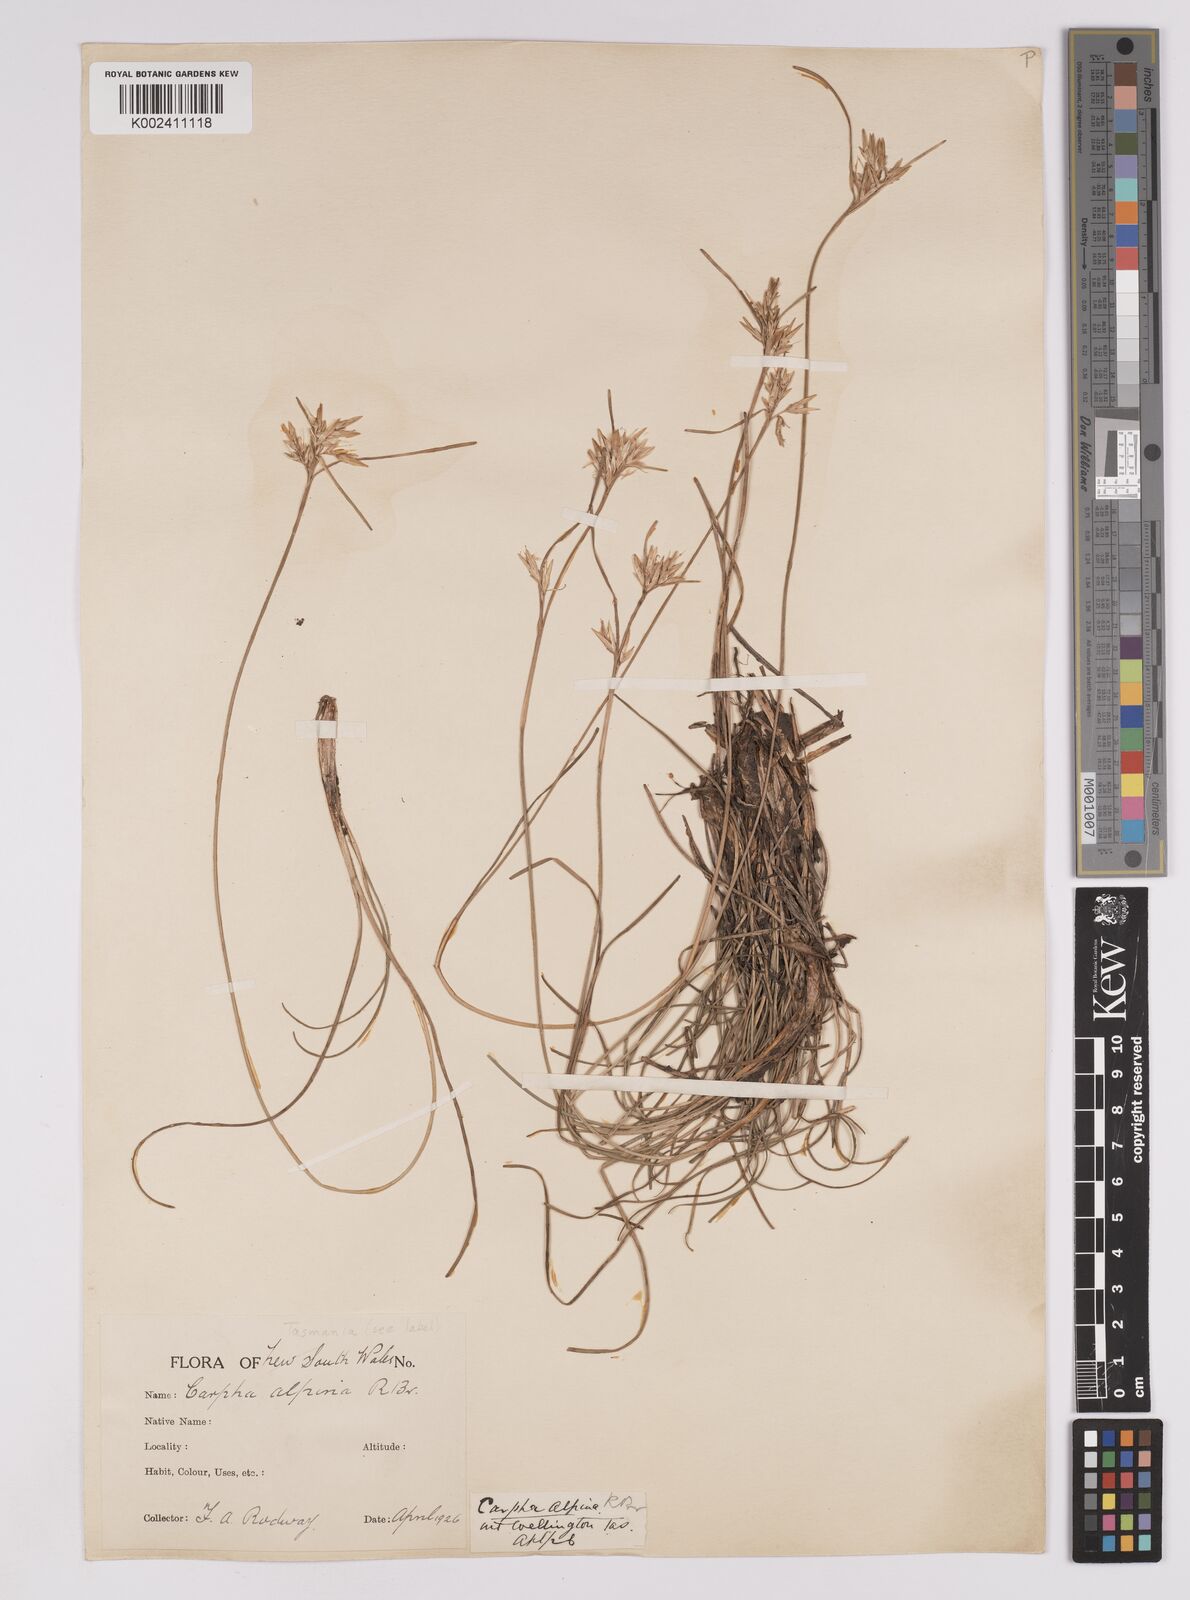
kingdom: Plantae
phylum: Tracheophyta
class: Liliopsida
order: Poales
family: Cyperaceae
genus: Carpha
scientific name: Carpha alpina
